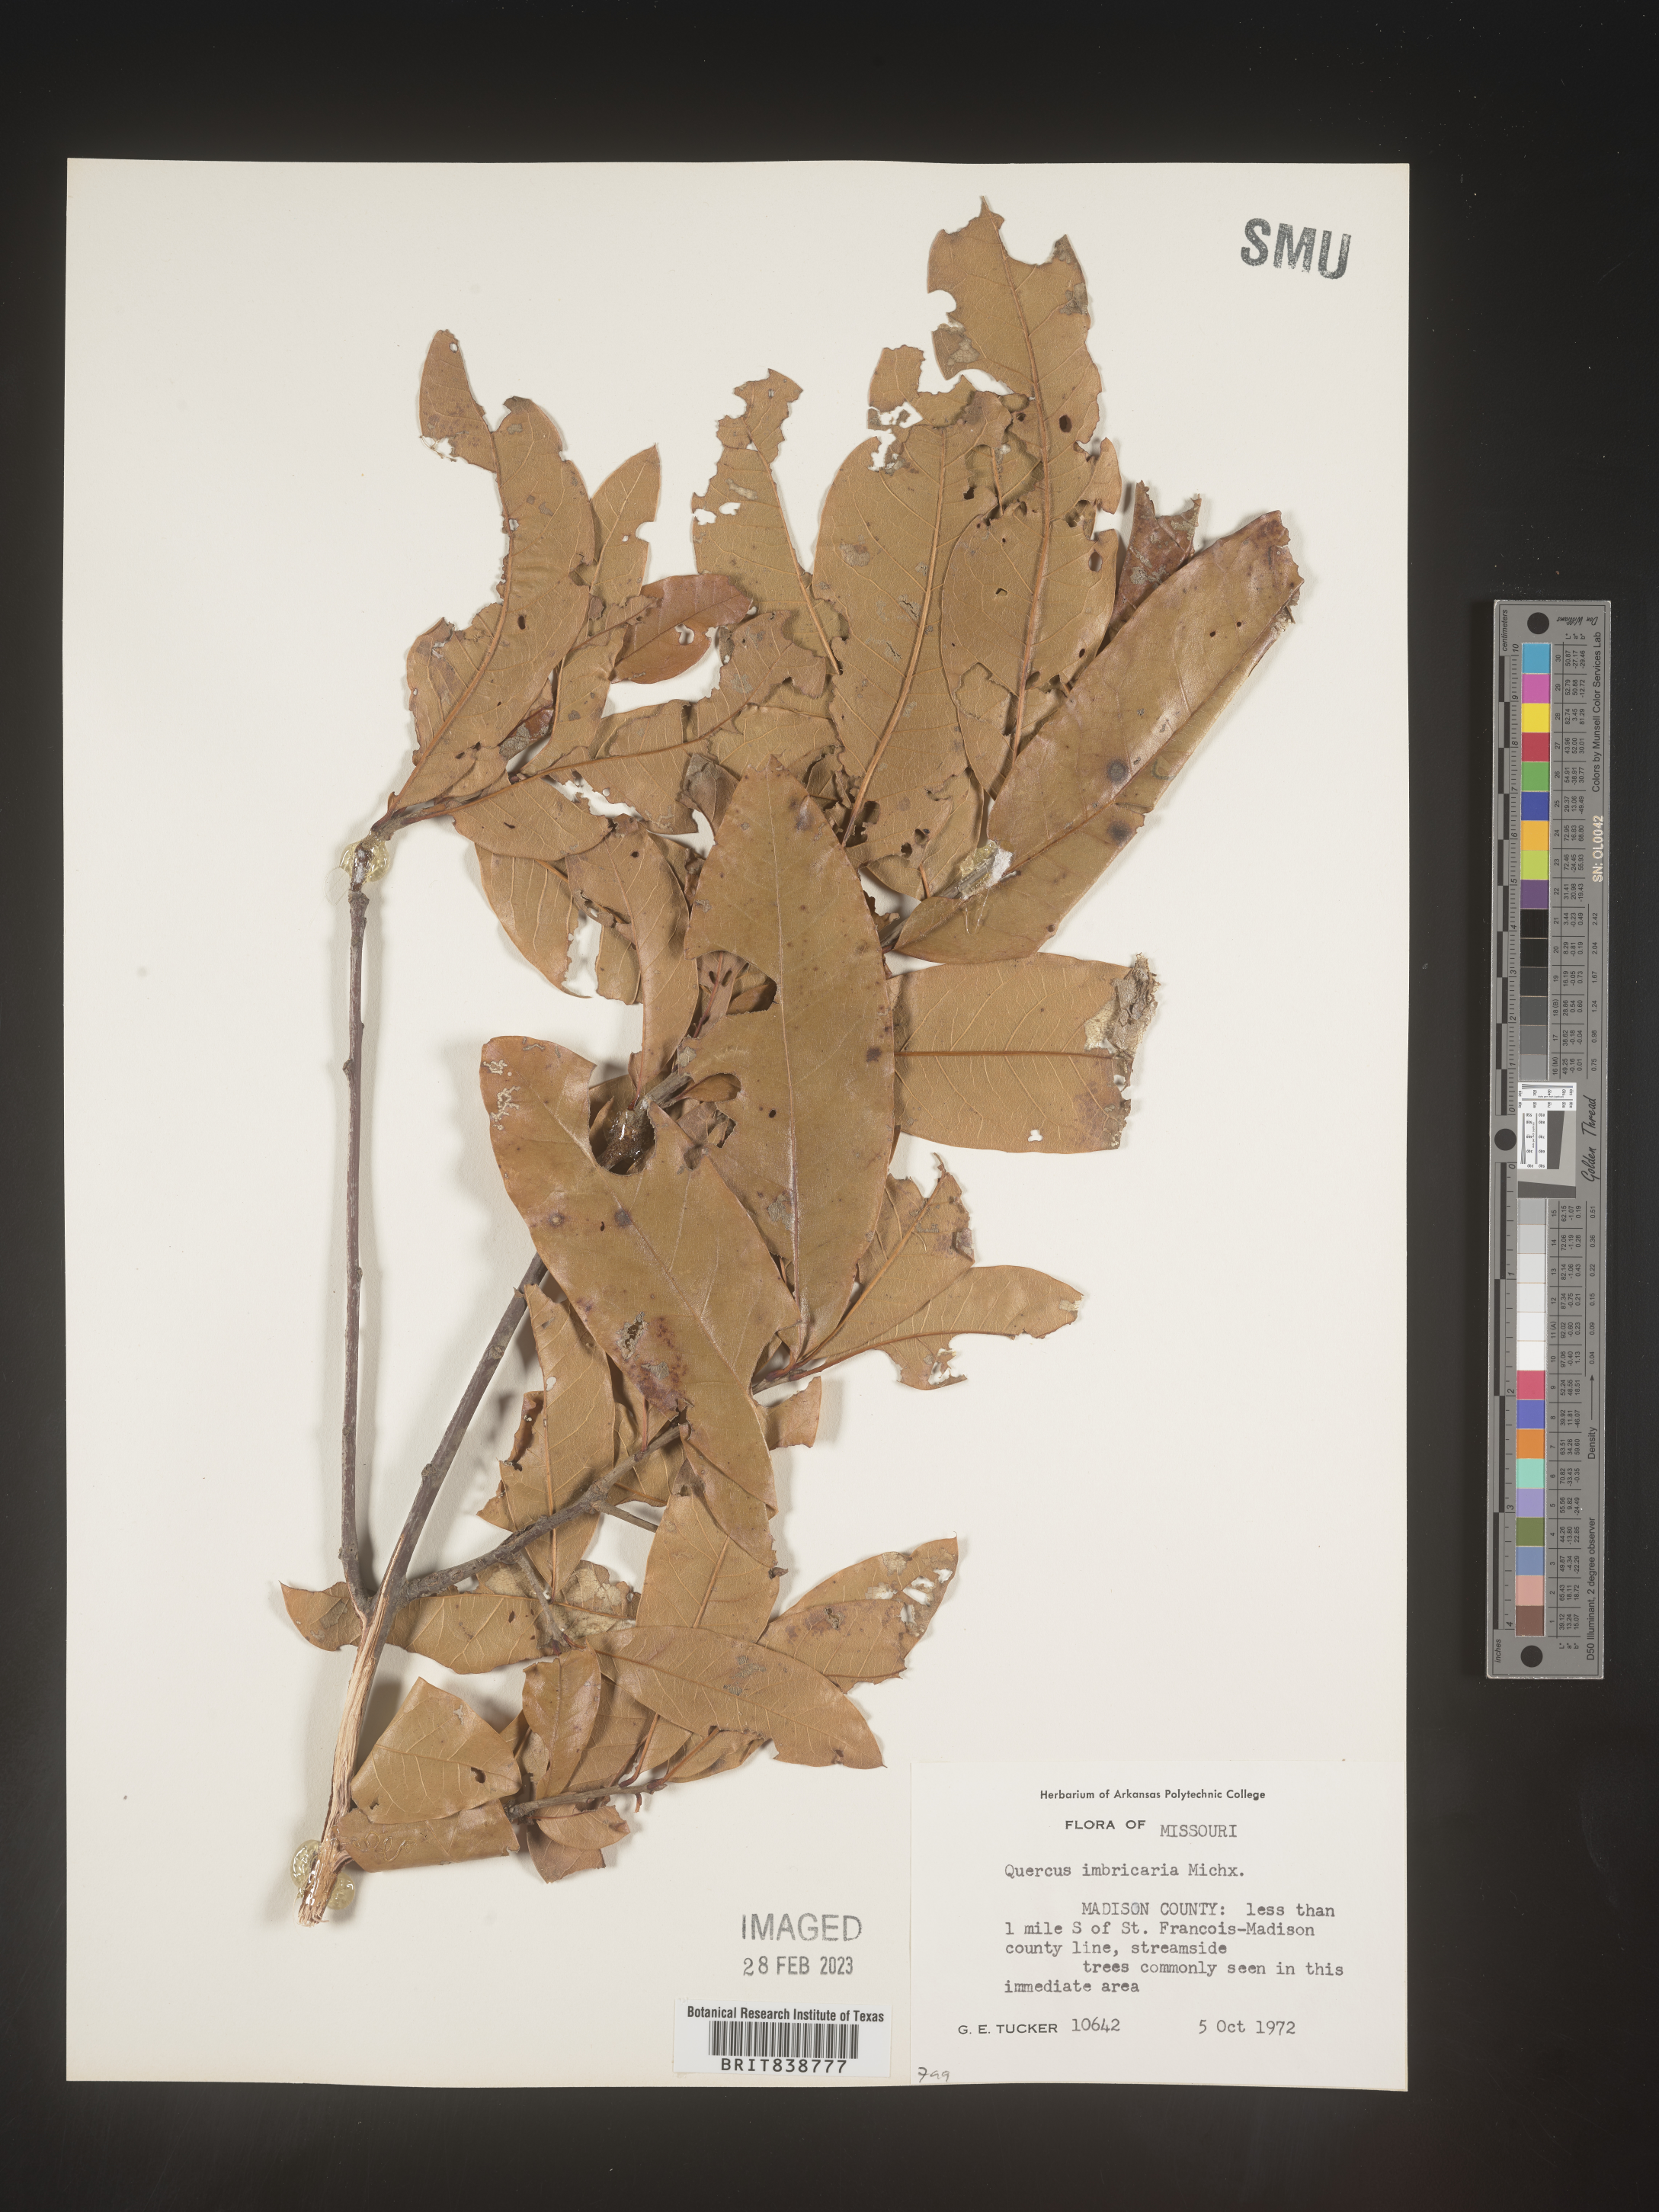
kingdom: Plantae
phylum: Tracheophyta
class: Magnoliopsida
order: Fagales
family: Fagaceae
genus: Quercus
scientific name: Quercus imbricaria
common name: Shingle oak
